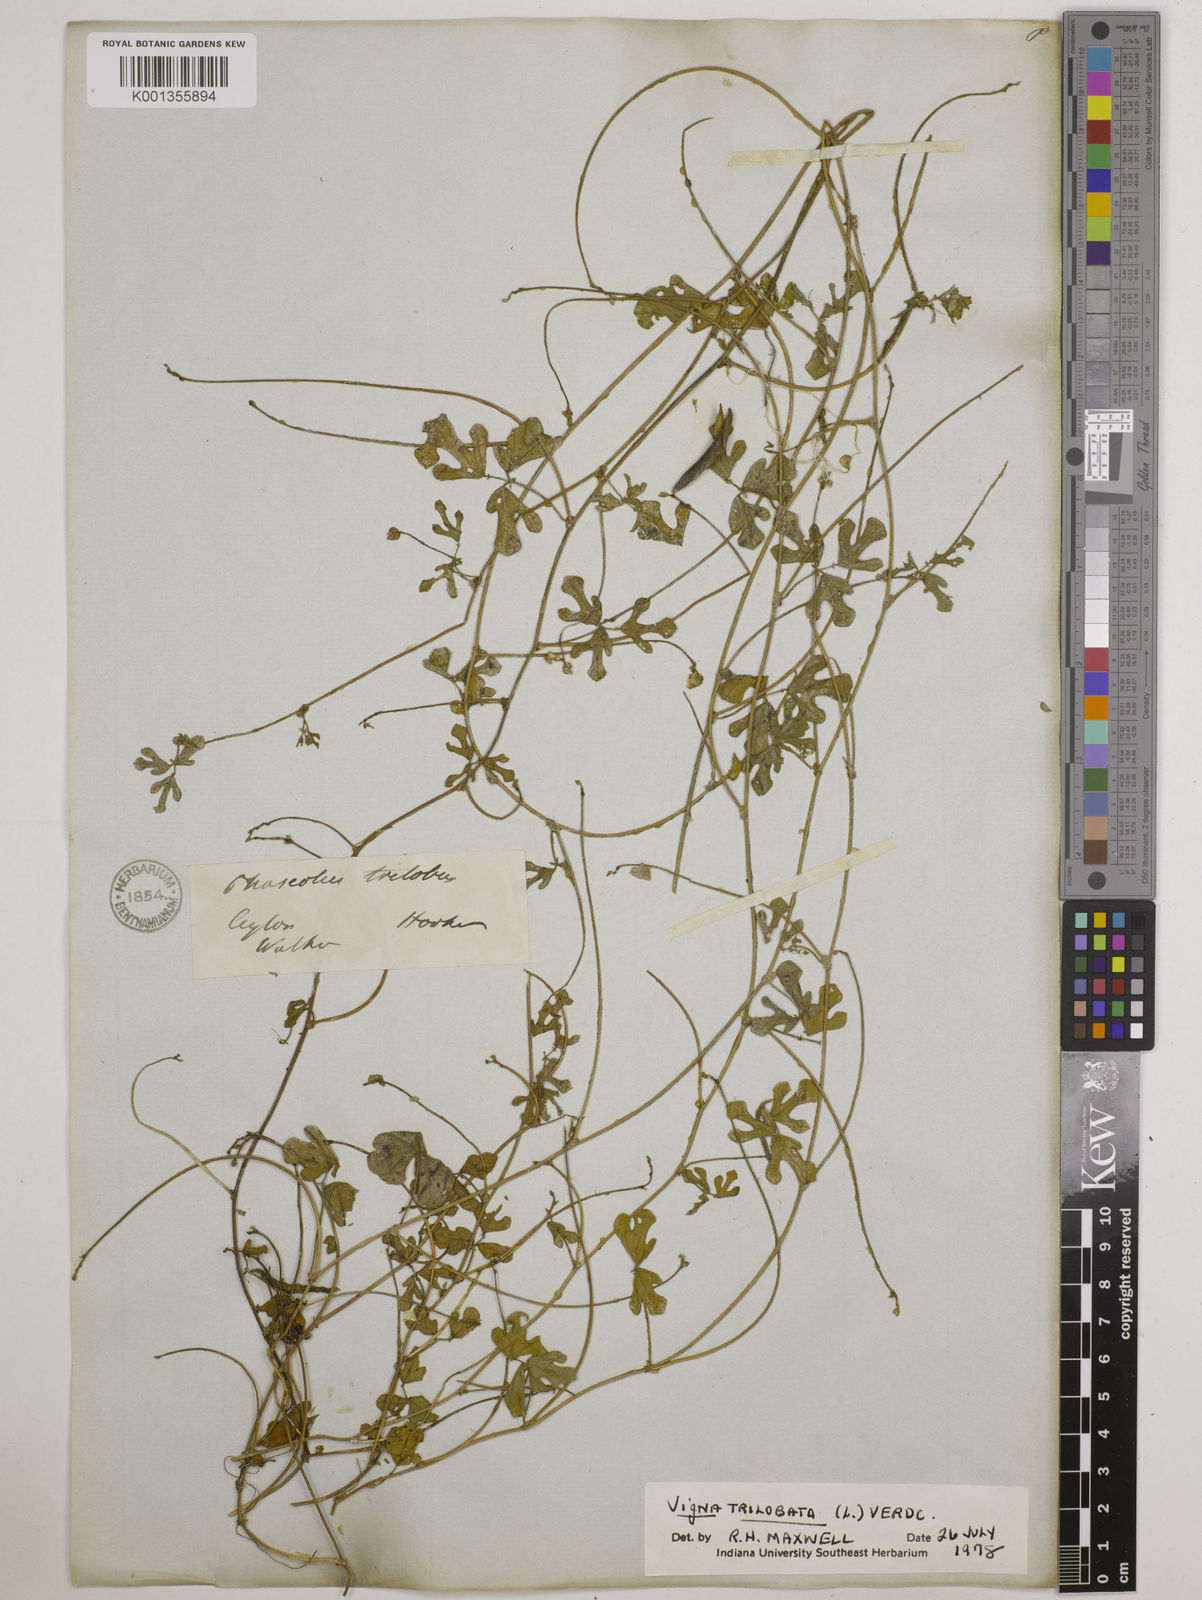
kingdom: Plantae
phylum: Tracheophyta
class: Magnoliopsida
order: Fabales
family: Fabaceae
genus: Vigna
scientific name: Vigna trilobata
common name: Jungli-bean
